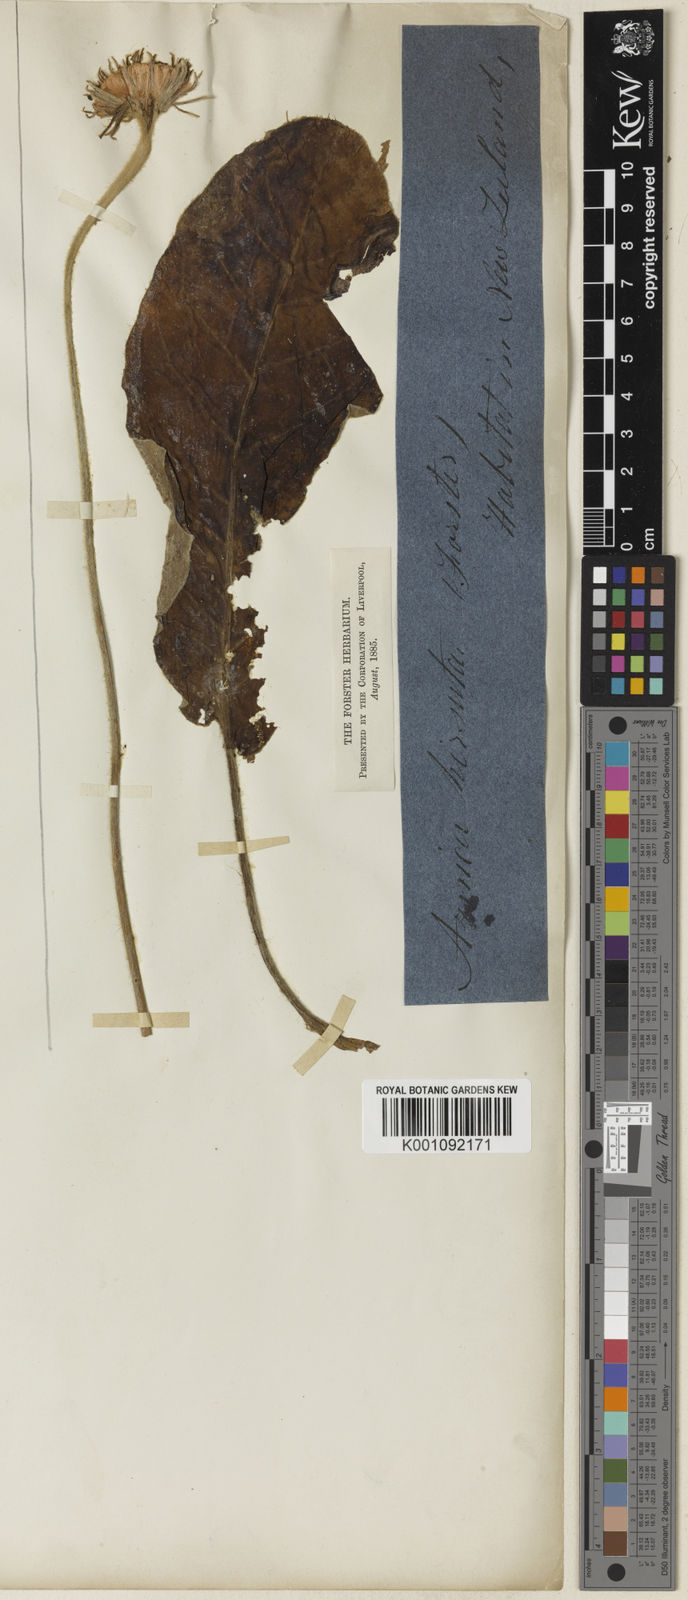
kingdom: Plantae
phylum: Tracheophyta
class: Magnoliopsida
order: Asterales
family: Asteraceae
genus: Piloselloides
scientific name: Piloselloides hirsuta
